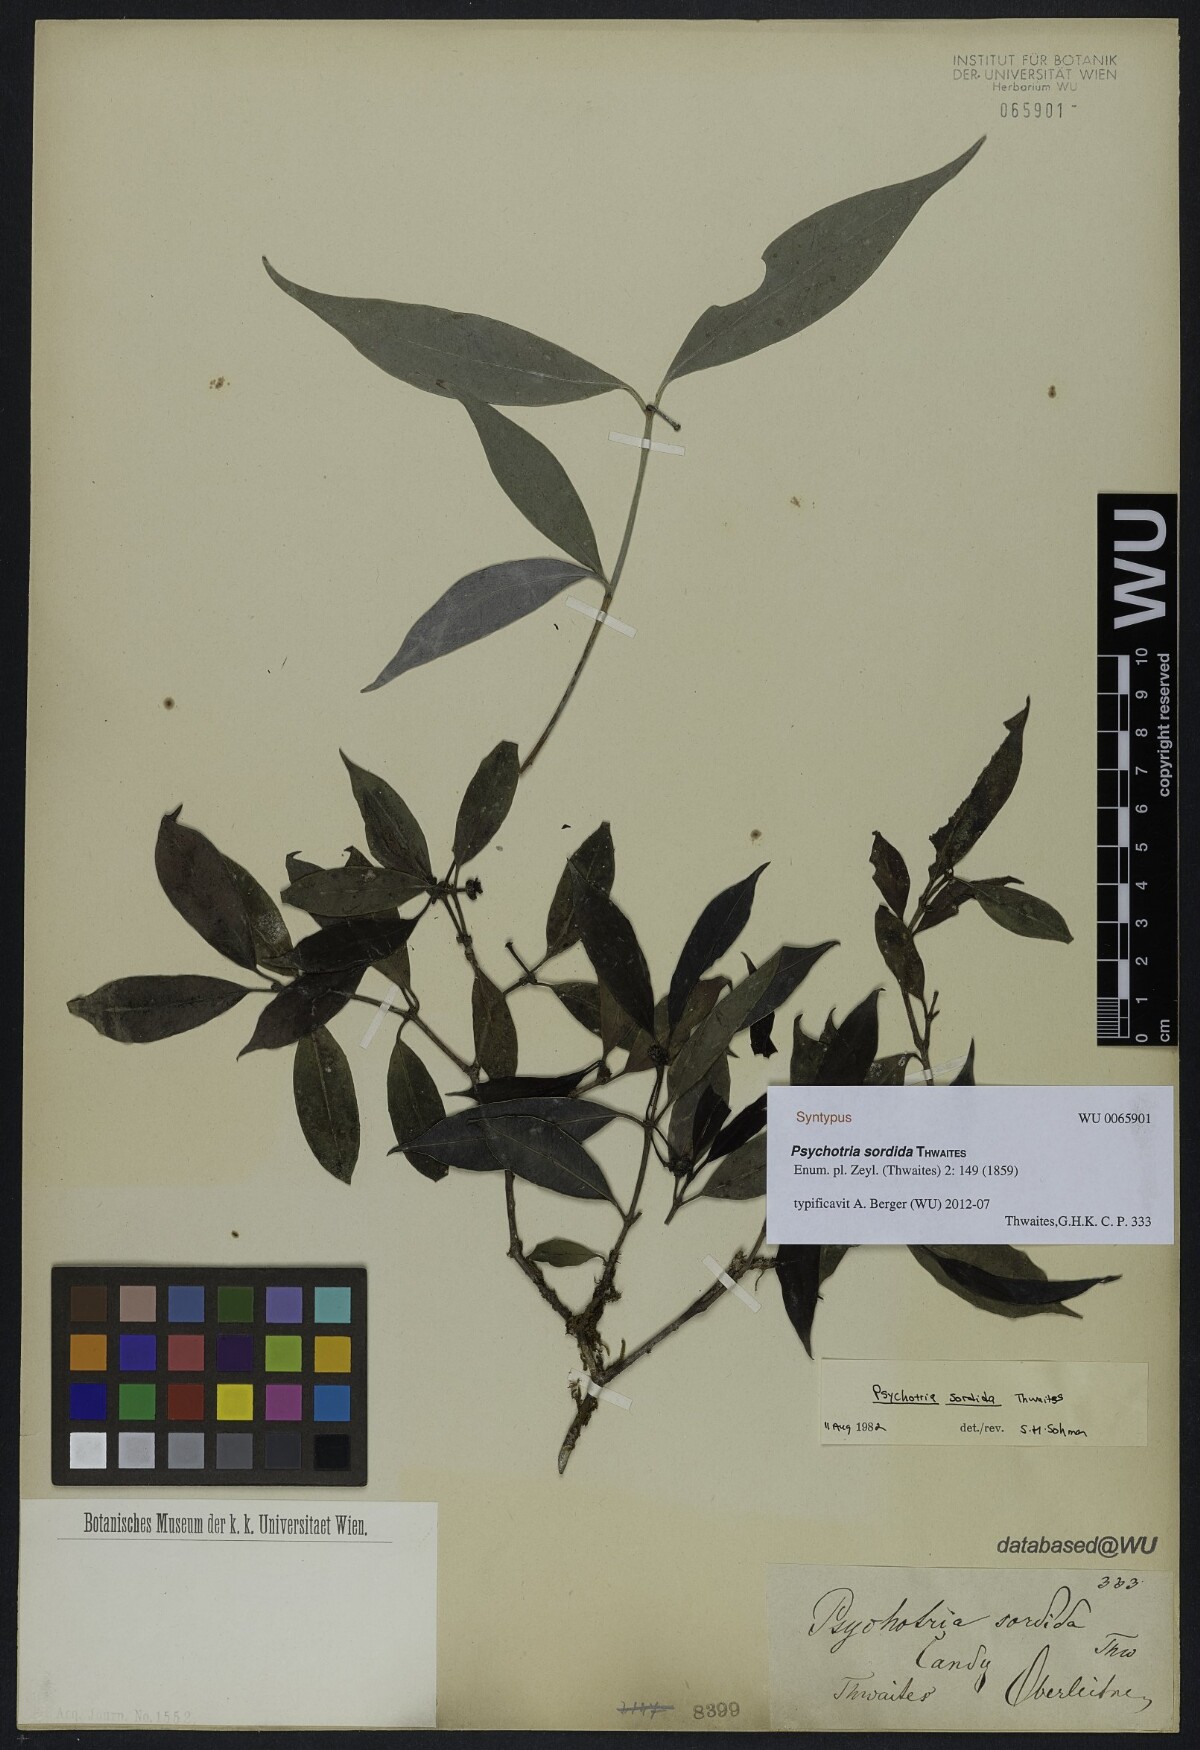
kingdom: Plantae
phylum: Tracheophyta
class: Magnoliopsida
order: Gentianales
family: Rubiaceae
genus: Psychotria
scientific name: Psychotria sordida
